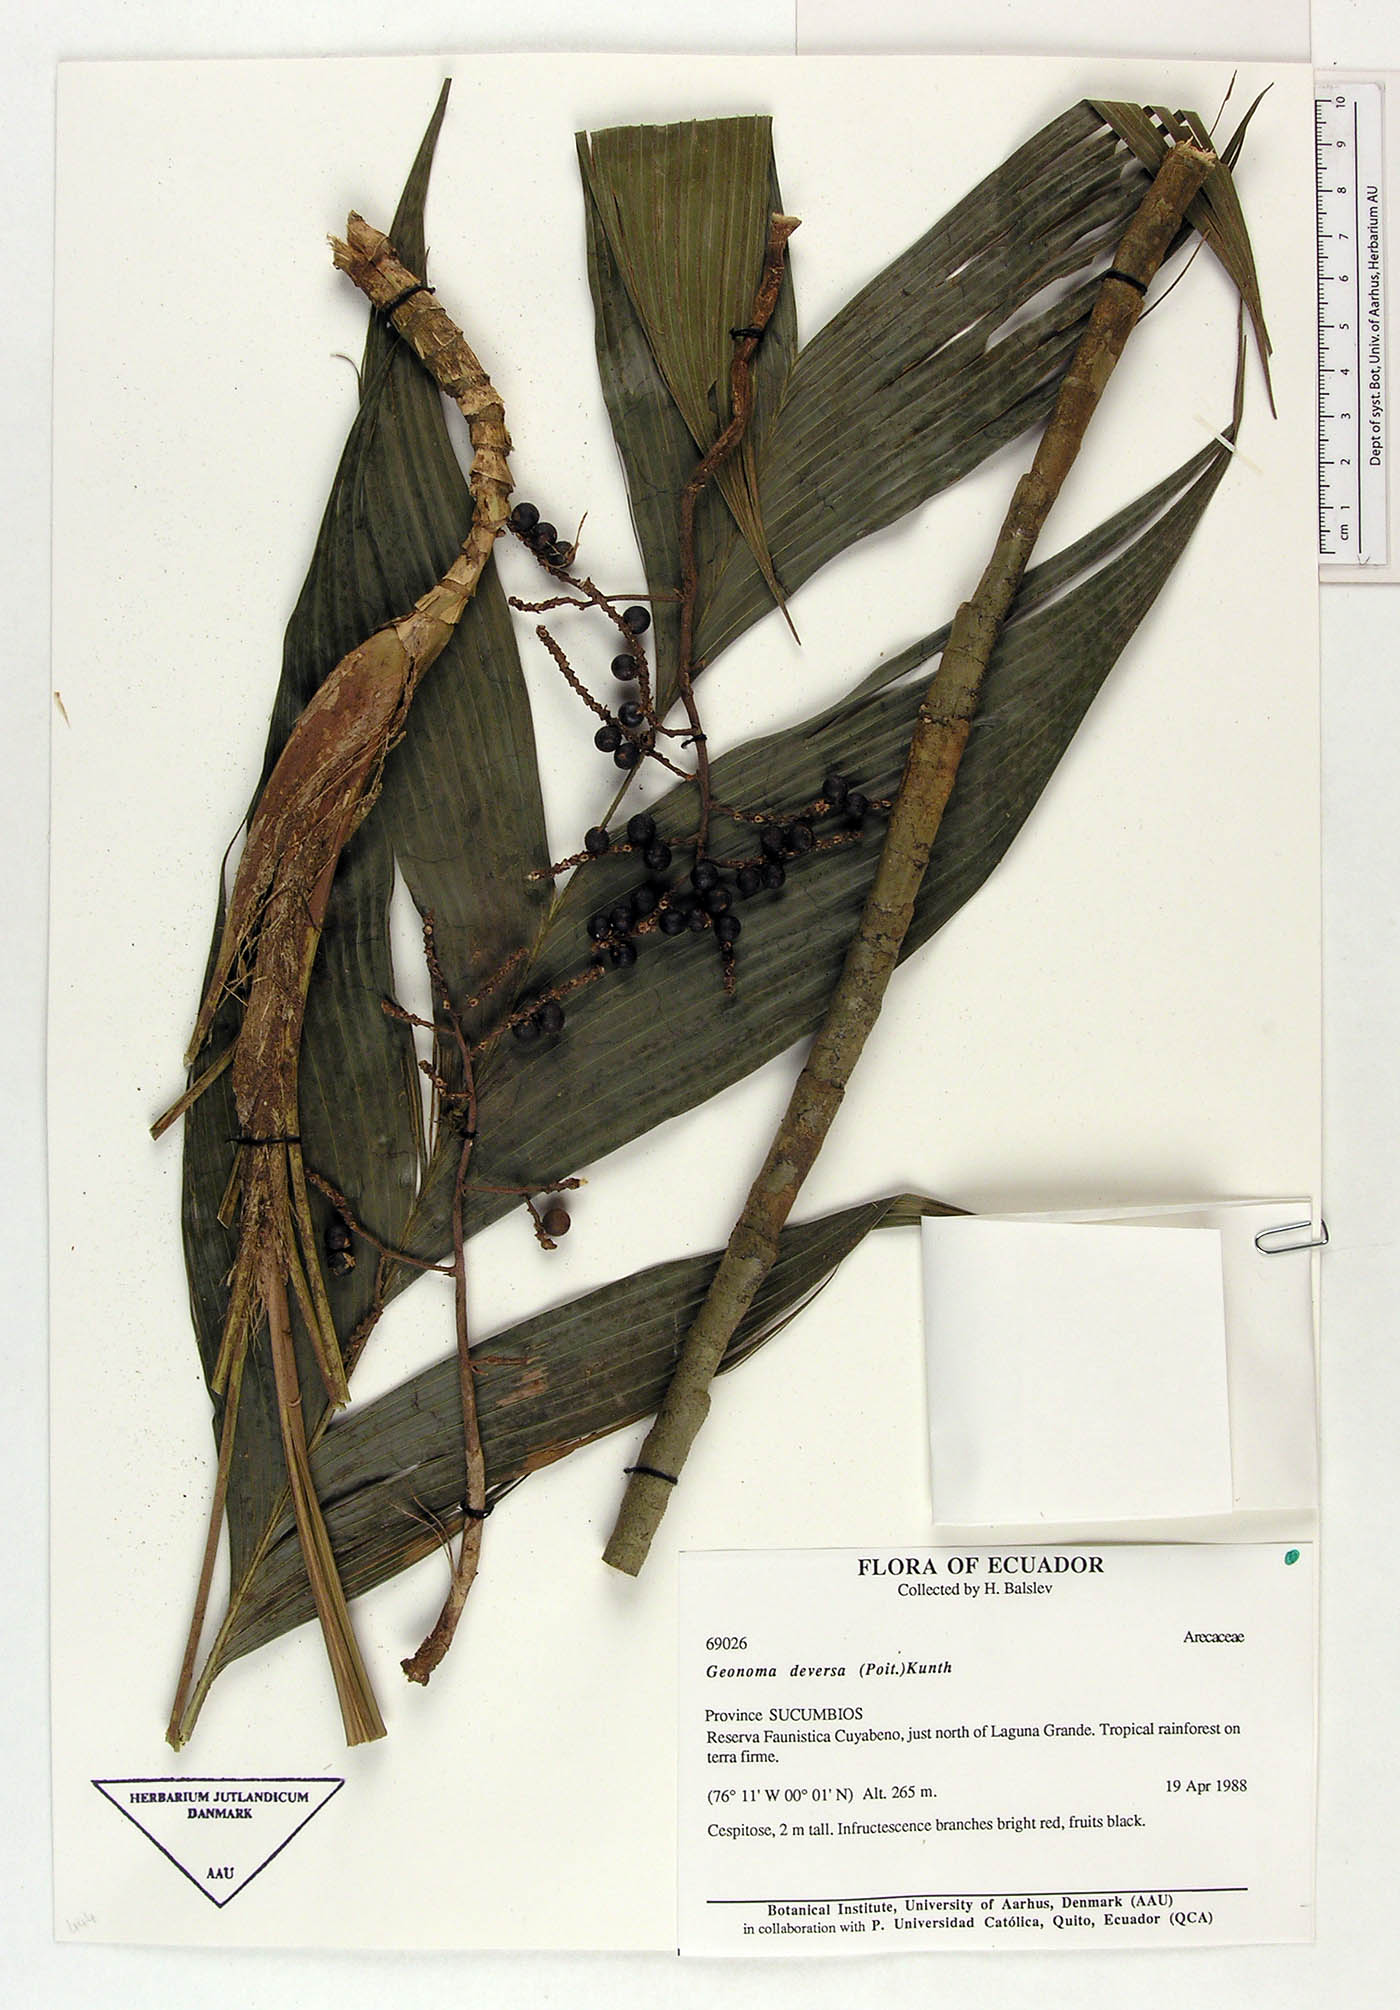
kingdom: Plantae
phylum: Tracheophyta
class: Liliopsida
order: Arecales
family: Arecaceae
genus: Geonoma
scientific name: Geonoma deversa
